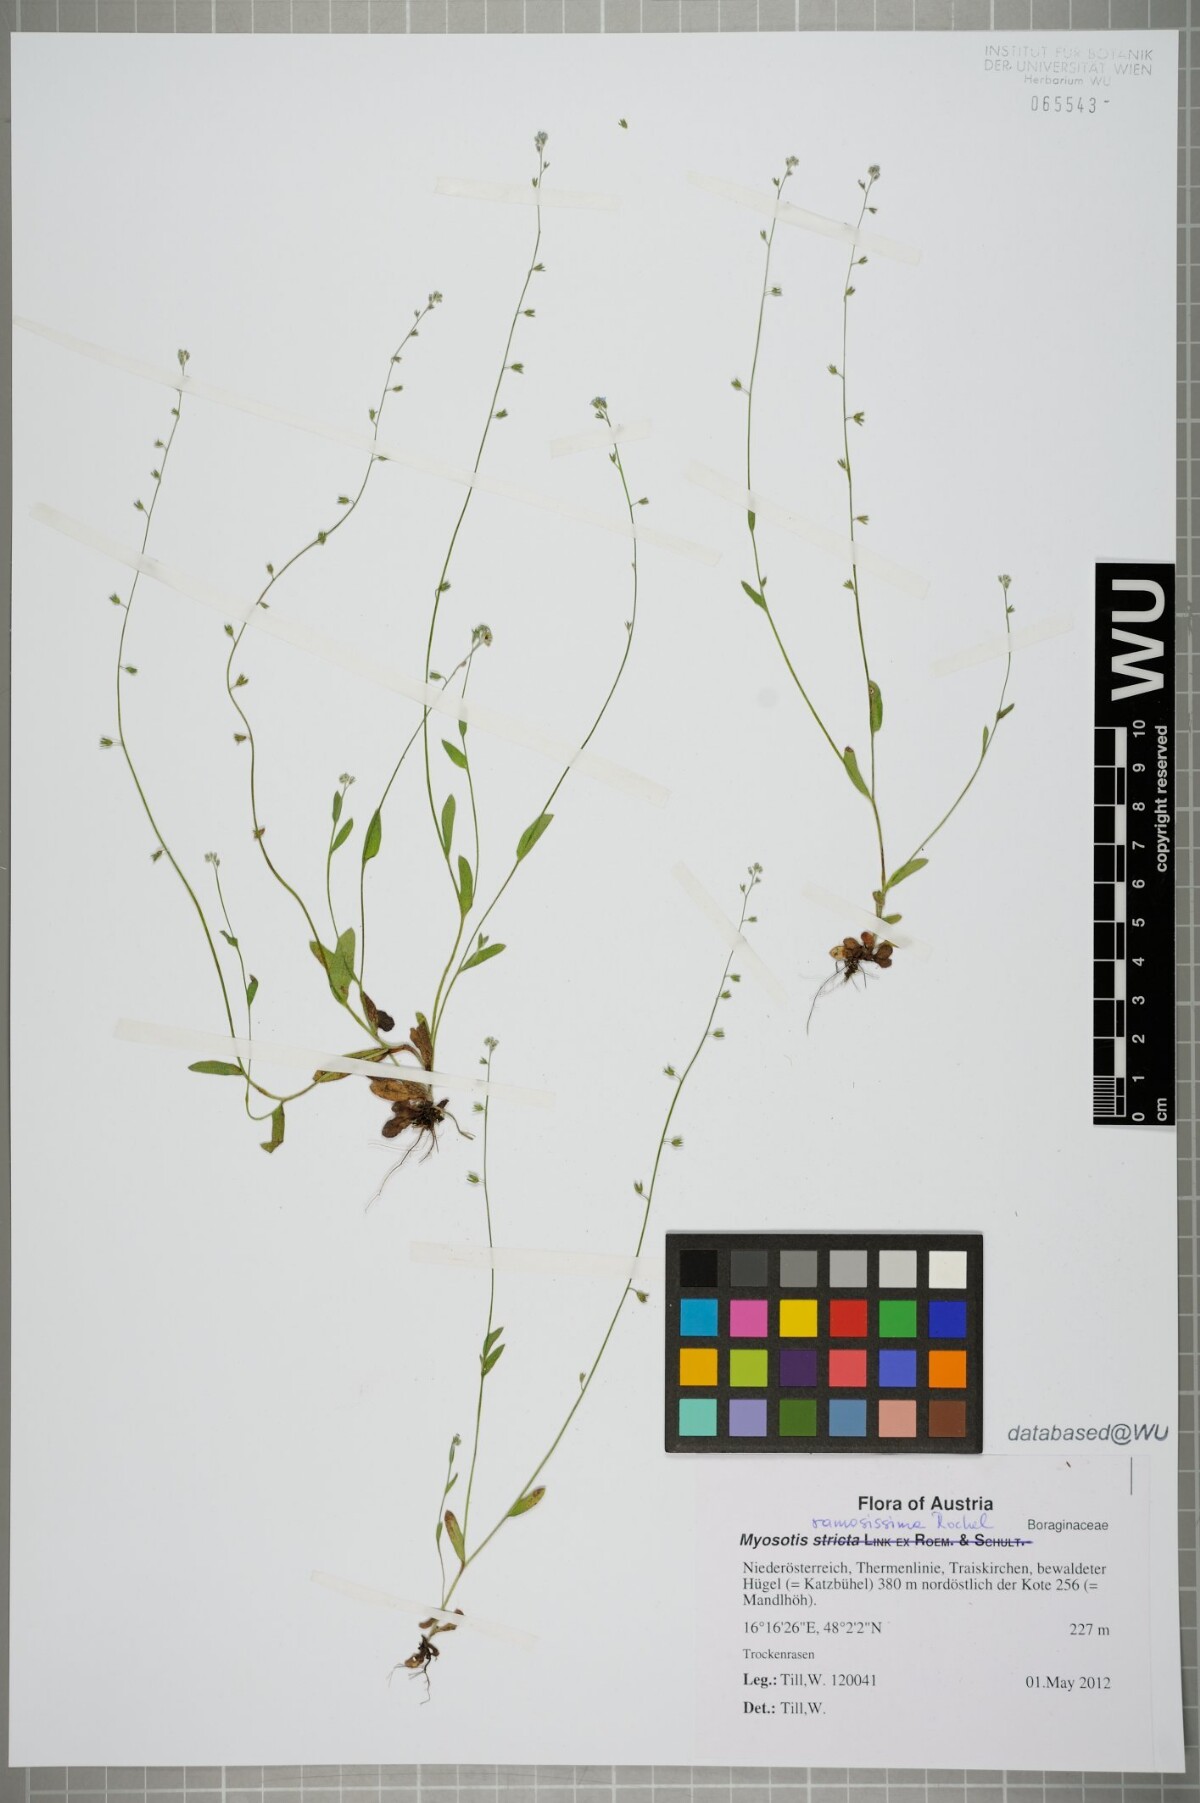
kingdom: Plantae
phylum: Tracheophyta
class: Magnoliopsida
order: Boraginales
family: Boraginaceae
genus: Myosotis
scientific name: Myosotis ramosissima
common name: Early forget-me-not
